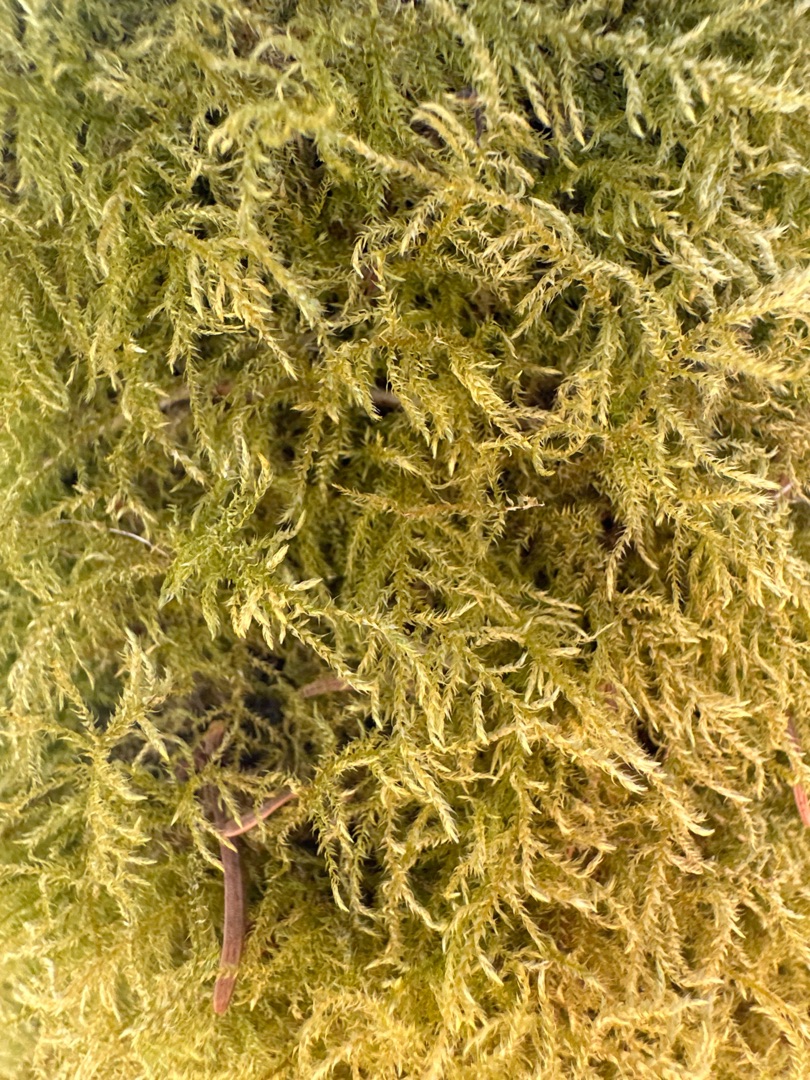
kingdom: Plantae
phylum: Bryophyta
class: Bryopsida
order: Hypnales
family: Brachytheciaceae
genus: Kindbergia
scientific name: Kindbergia praelonga
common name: Forskelligbladet vortetand
